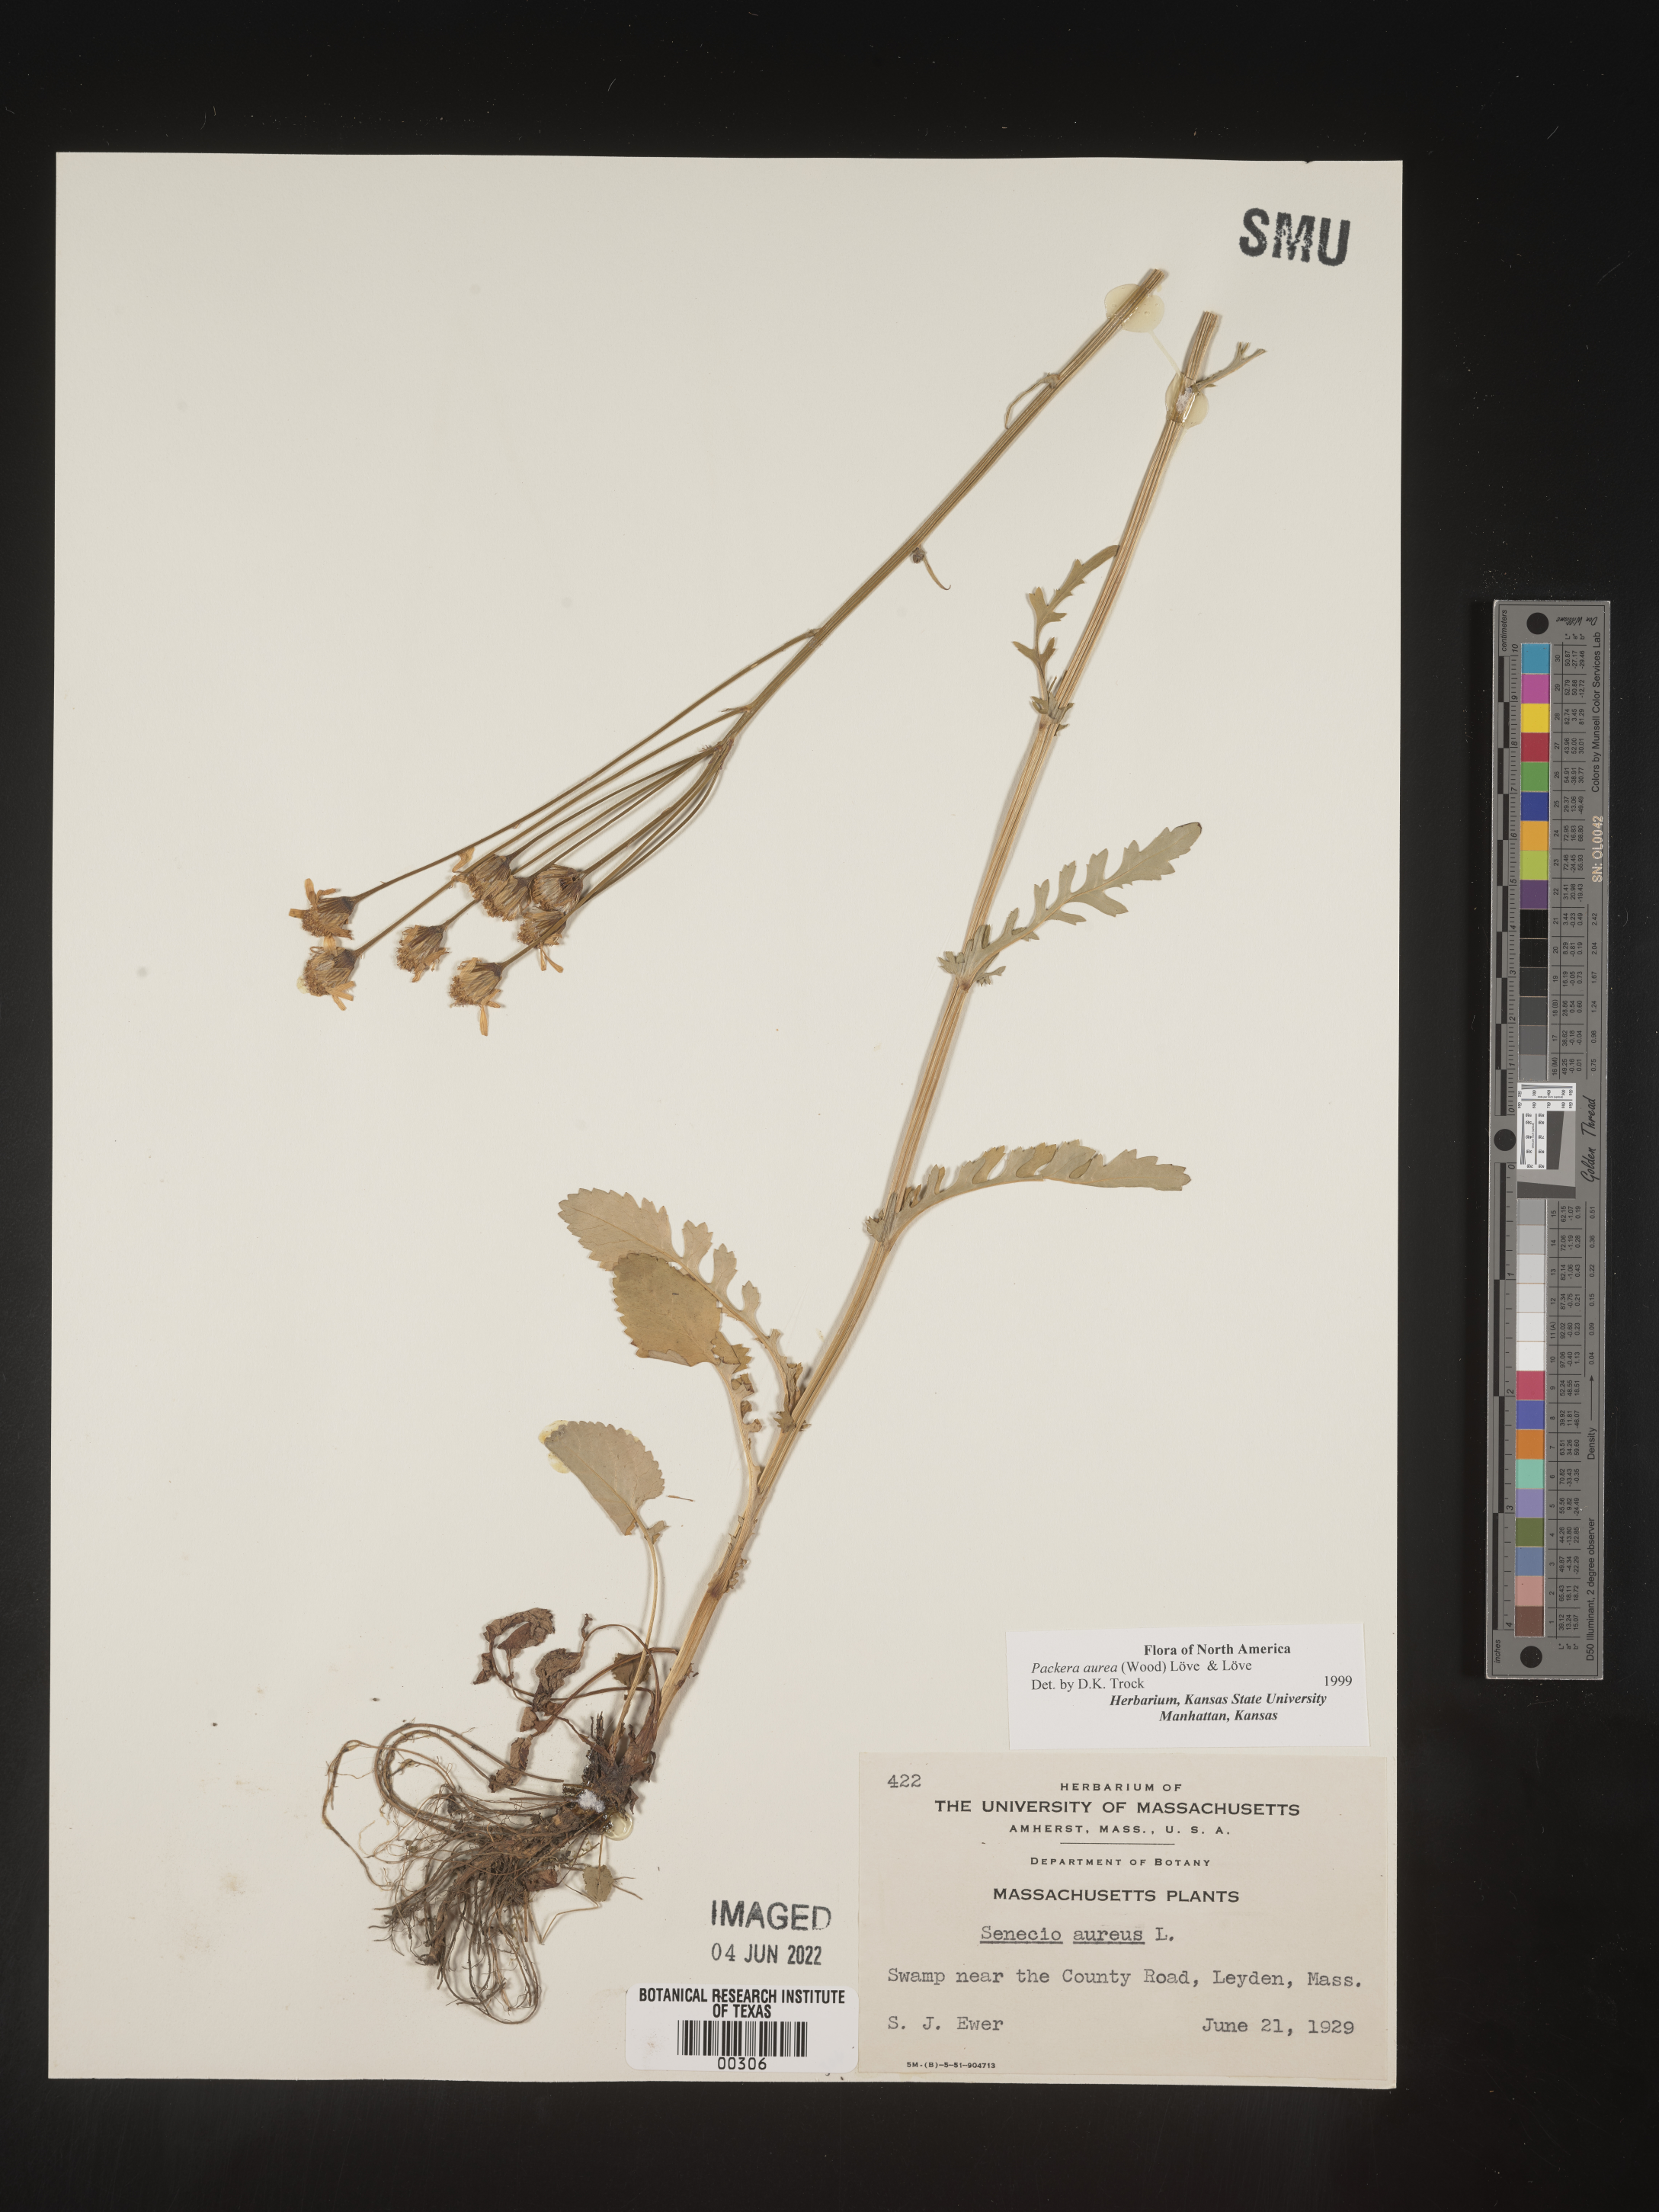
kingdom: Plantae
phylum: Tracheophyta
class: Magnoliopsida
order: Asterales
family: Asteraceae
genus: Packera
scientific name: Packera aurea
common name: Golden groundsel
